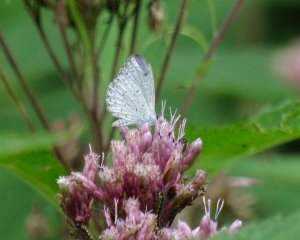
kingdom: Animalia
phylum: Arthropoda
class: Insecta
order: Lepidoptera
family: Lycaenidae
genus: Cyaniris
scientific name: Cyaniris neglecta
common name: Summer Azure
